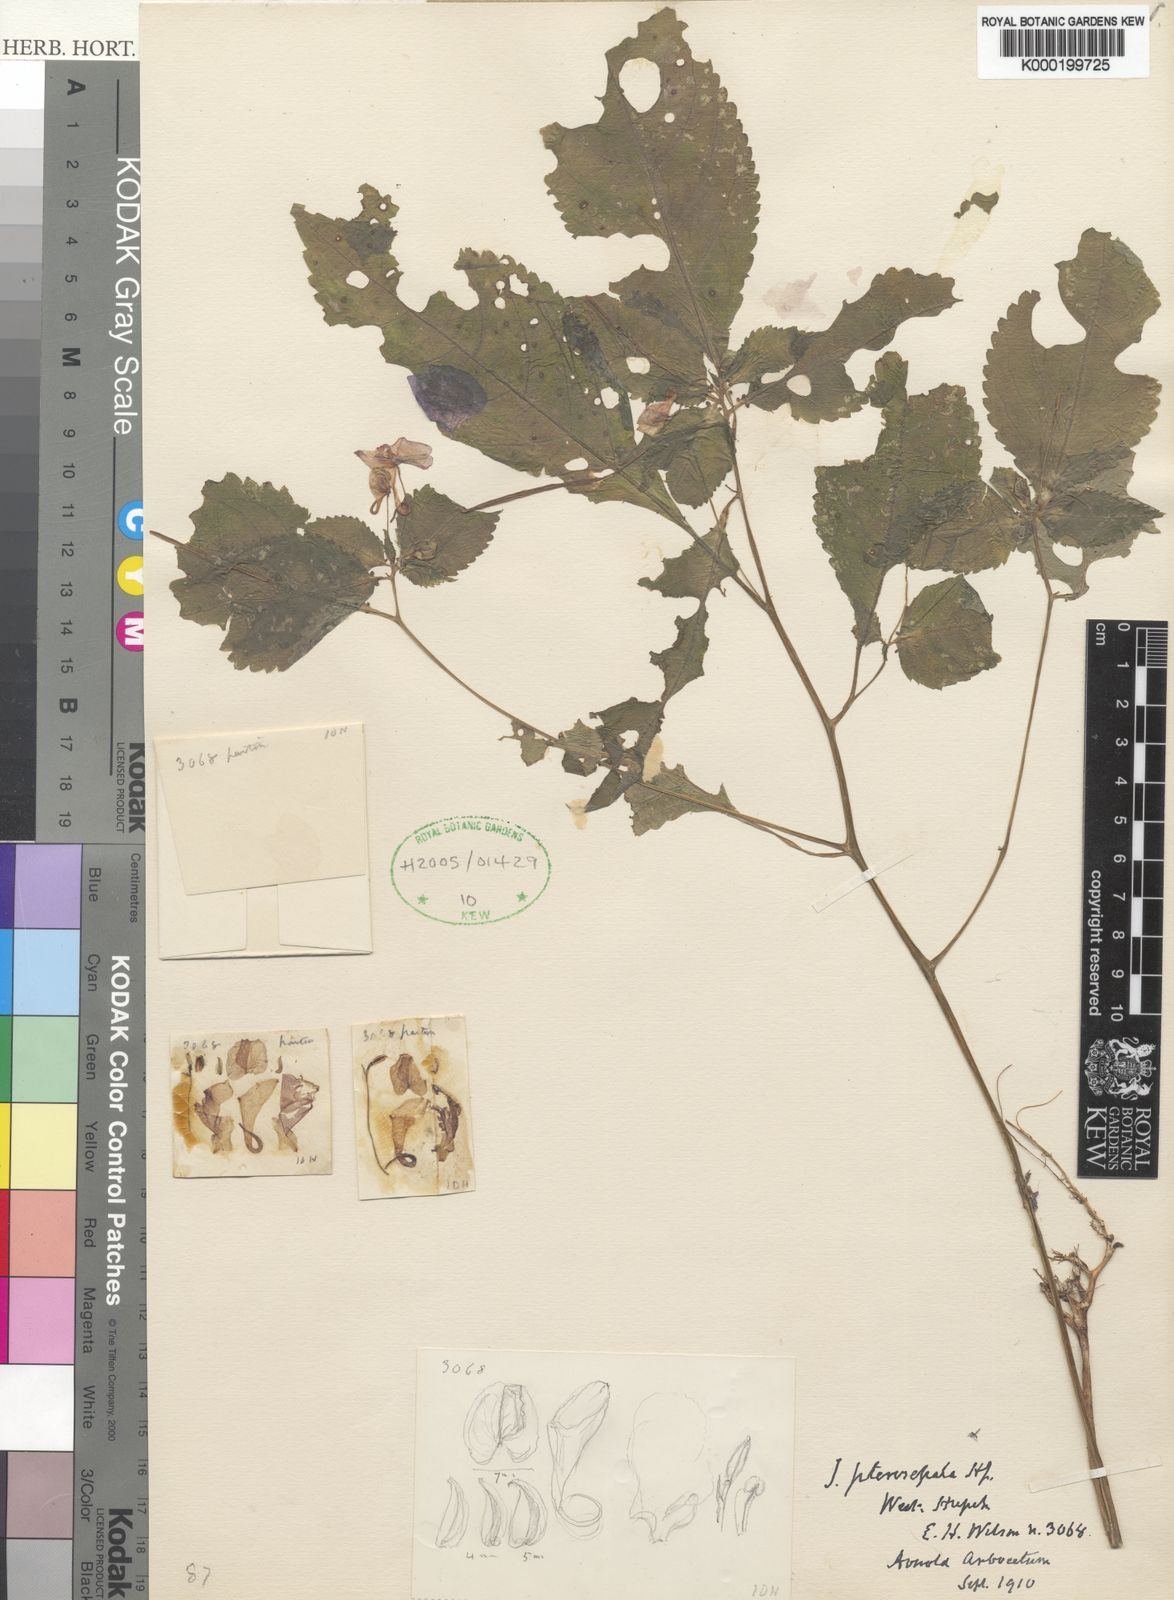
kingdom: Plantae
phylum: Tracheophyta
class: Magnoliopsida
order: Ericales
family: Balsaminaceae
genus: Impatiens
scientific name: Impatiens pterosepala
